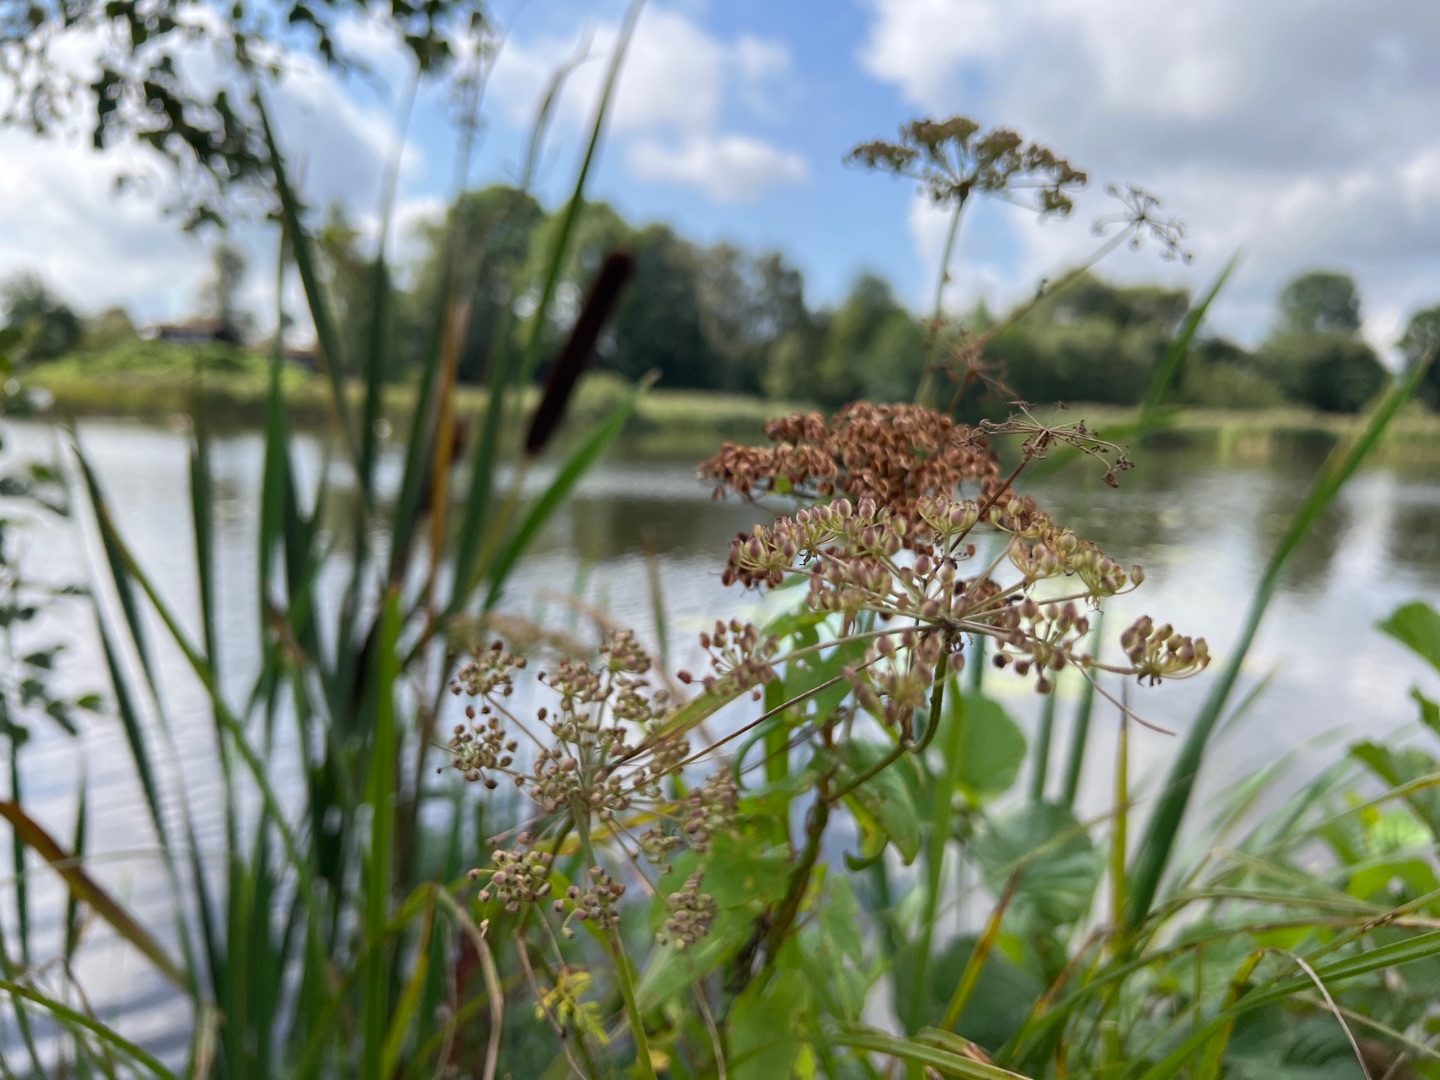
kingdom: Plantae
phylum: Tracheophyta
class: Magnoliopsida
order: Apiales
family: Apiaceae
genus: Thysselinum
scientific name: Thysselinum palustre
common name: Kær-svovlrod
